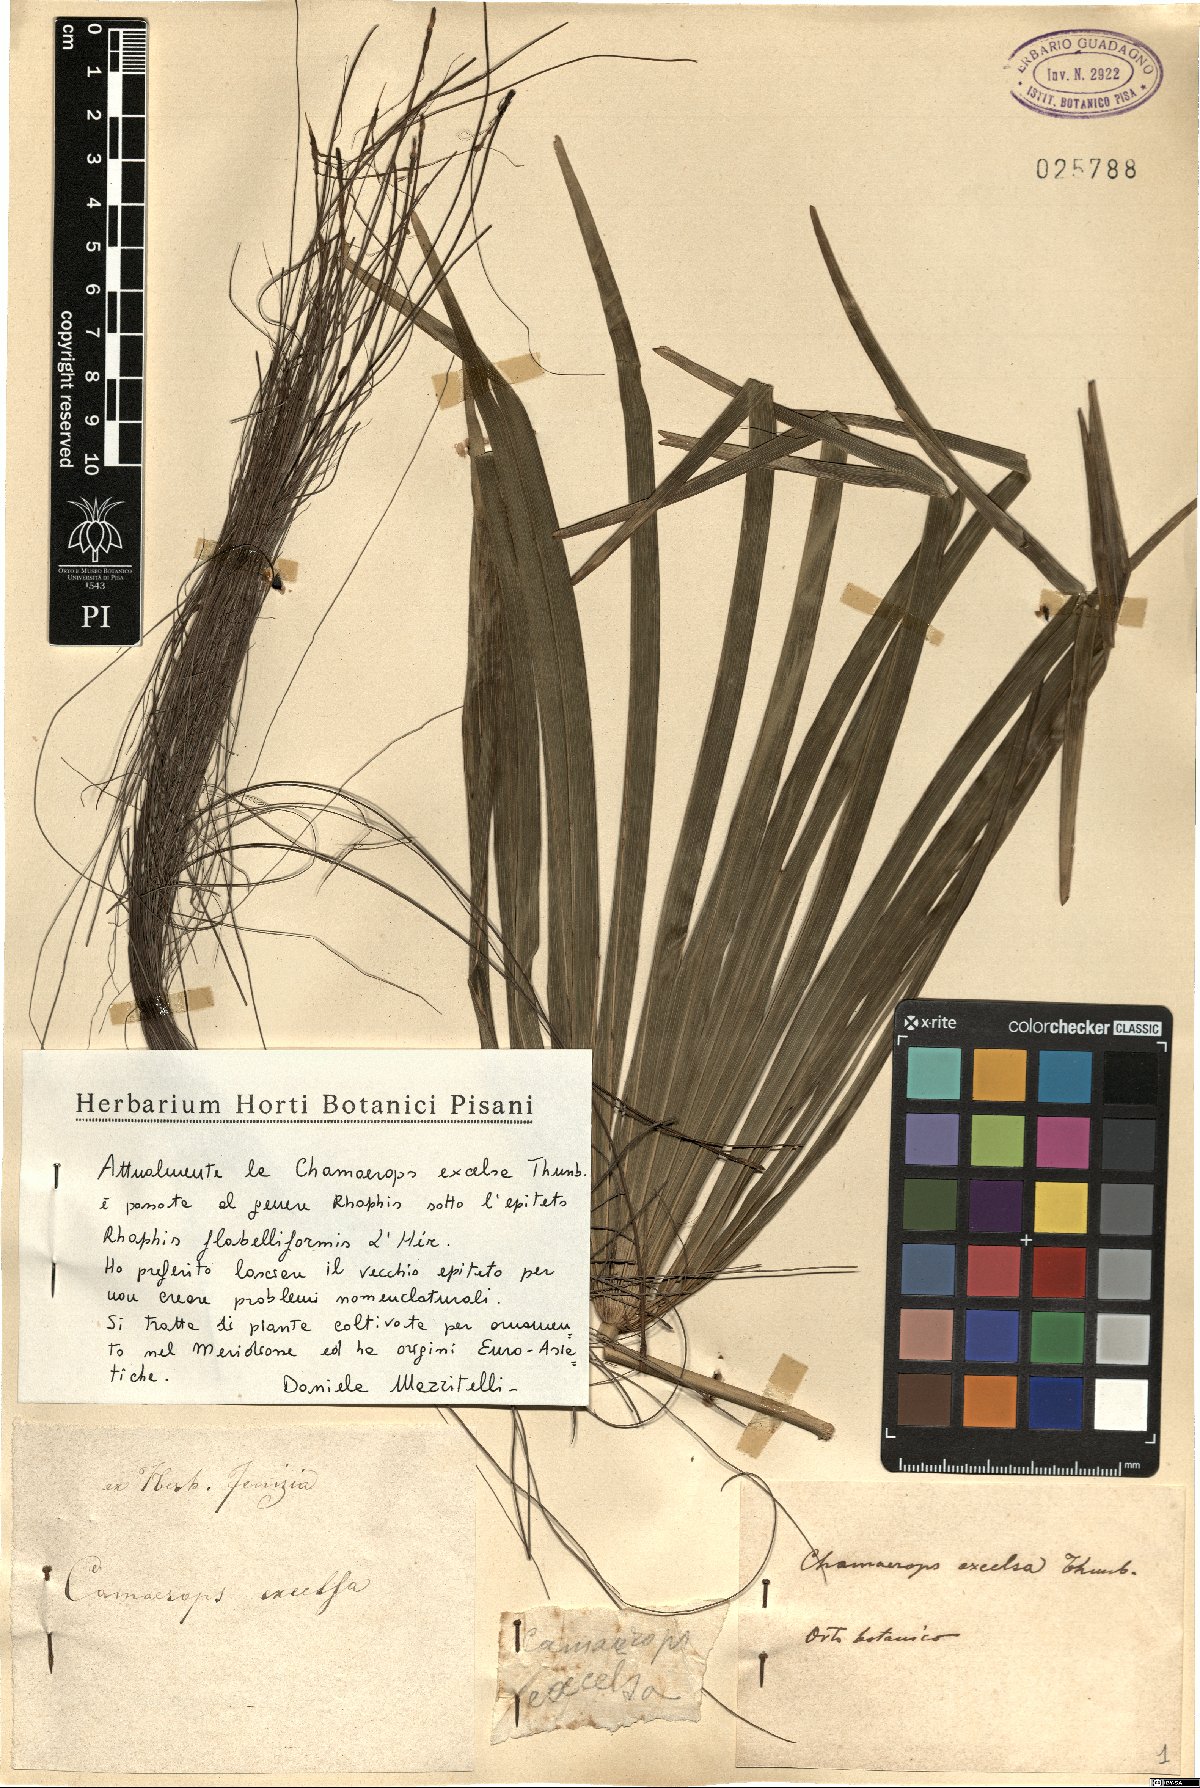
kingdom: Plantae
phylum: Tracheophyta
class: Liliopsida
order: Arecales
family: Arecaceae
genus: Rhapis
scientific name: Rhapis excelsa
